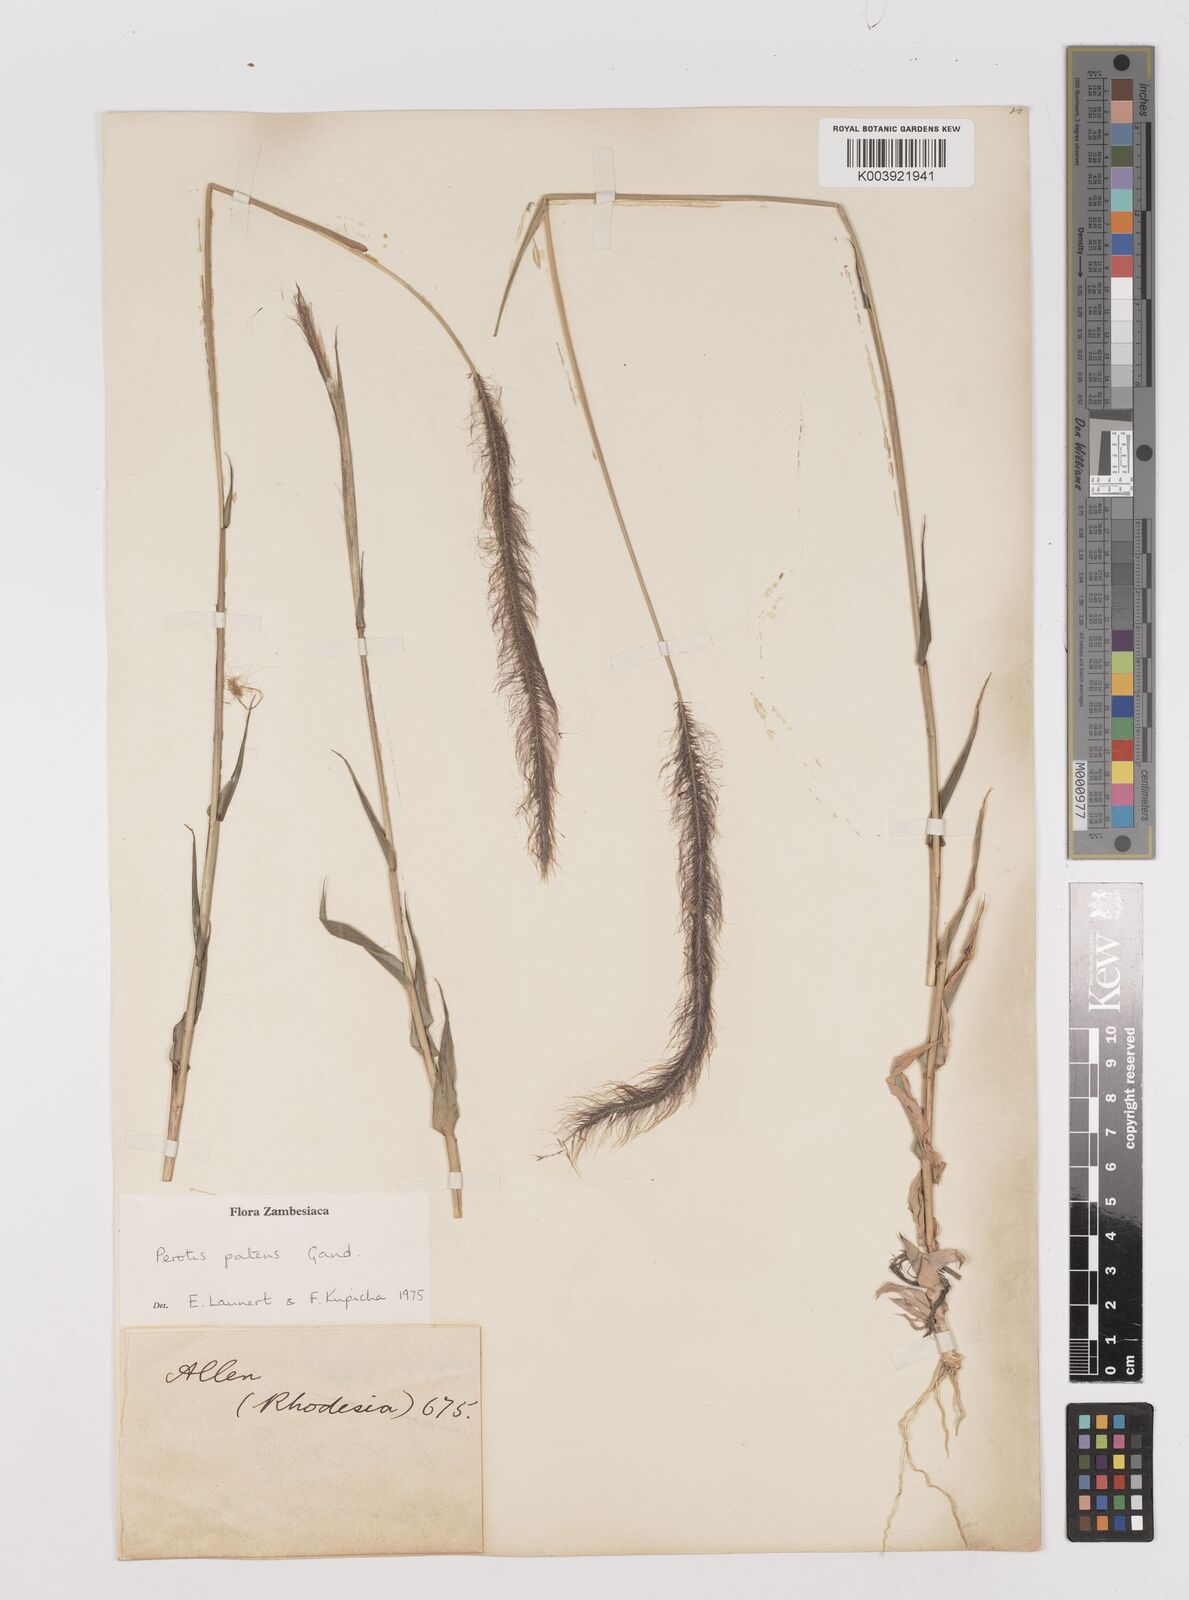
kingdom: Plantae
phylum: Tracheophyta
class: Liliopsida
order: Poales
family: Poaceae
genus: Perotis
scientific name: Perotis patens
